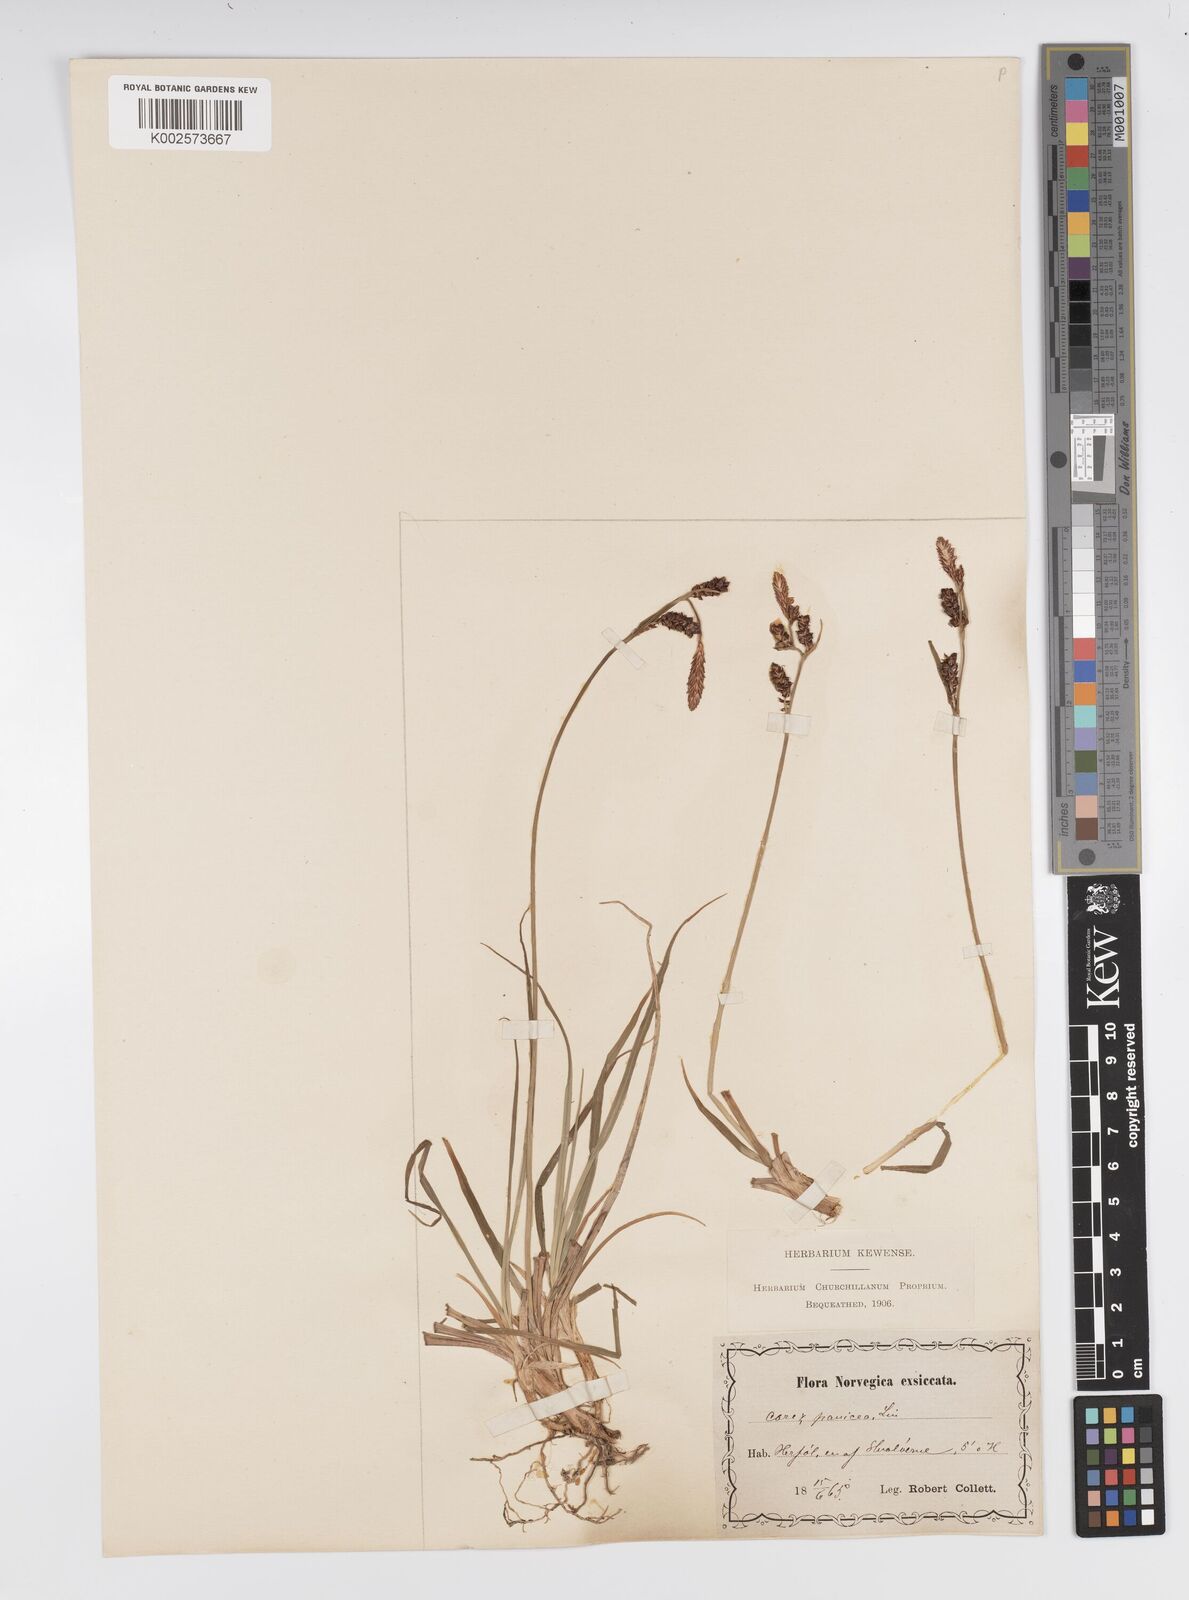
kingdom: Plantae
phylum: Tracheophyta
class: Liliopsida
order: Poales
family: Cyperaceae
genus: Carex
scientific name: Carex panicea
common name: Carnation sedge
